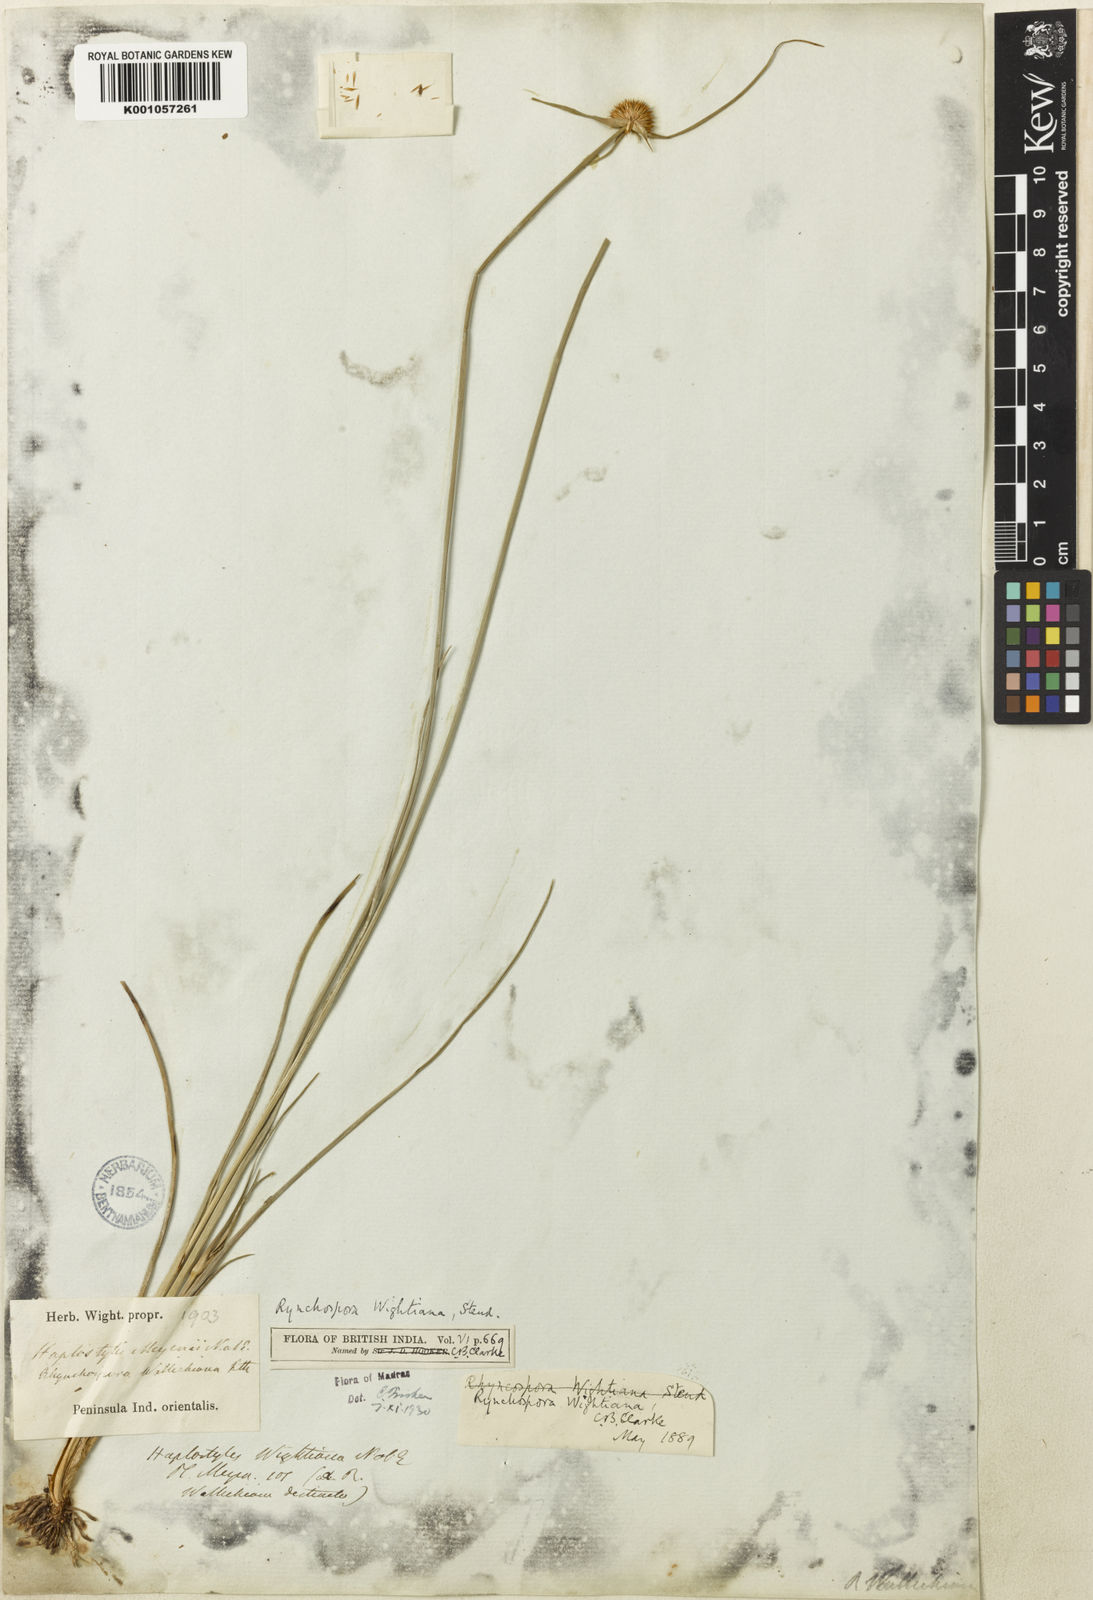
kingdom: Plantae
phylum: Tracheophyta
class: Liliopsida
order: Poales
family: Cyperaceae
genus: Rhynchospora
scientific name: Rhynchospora wightiana
